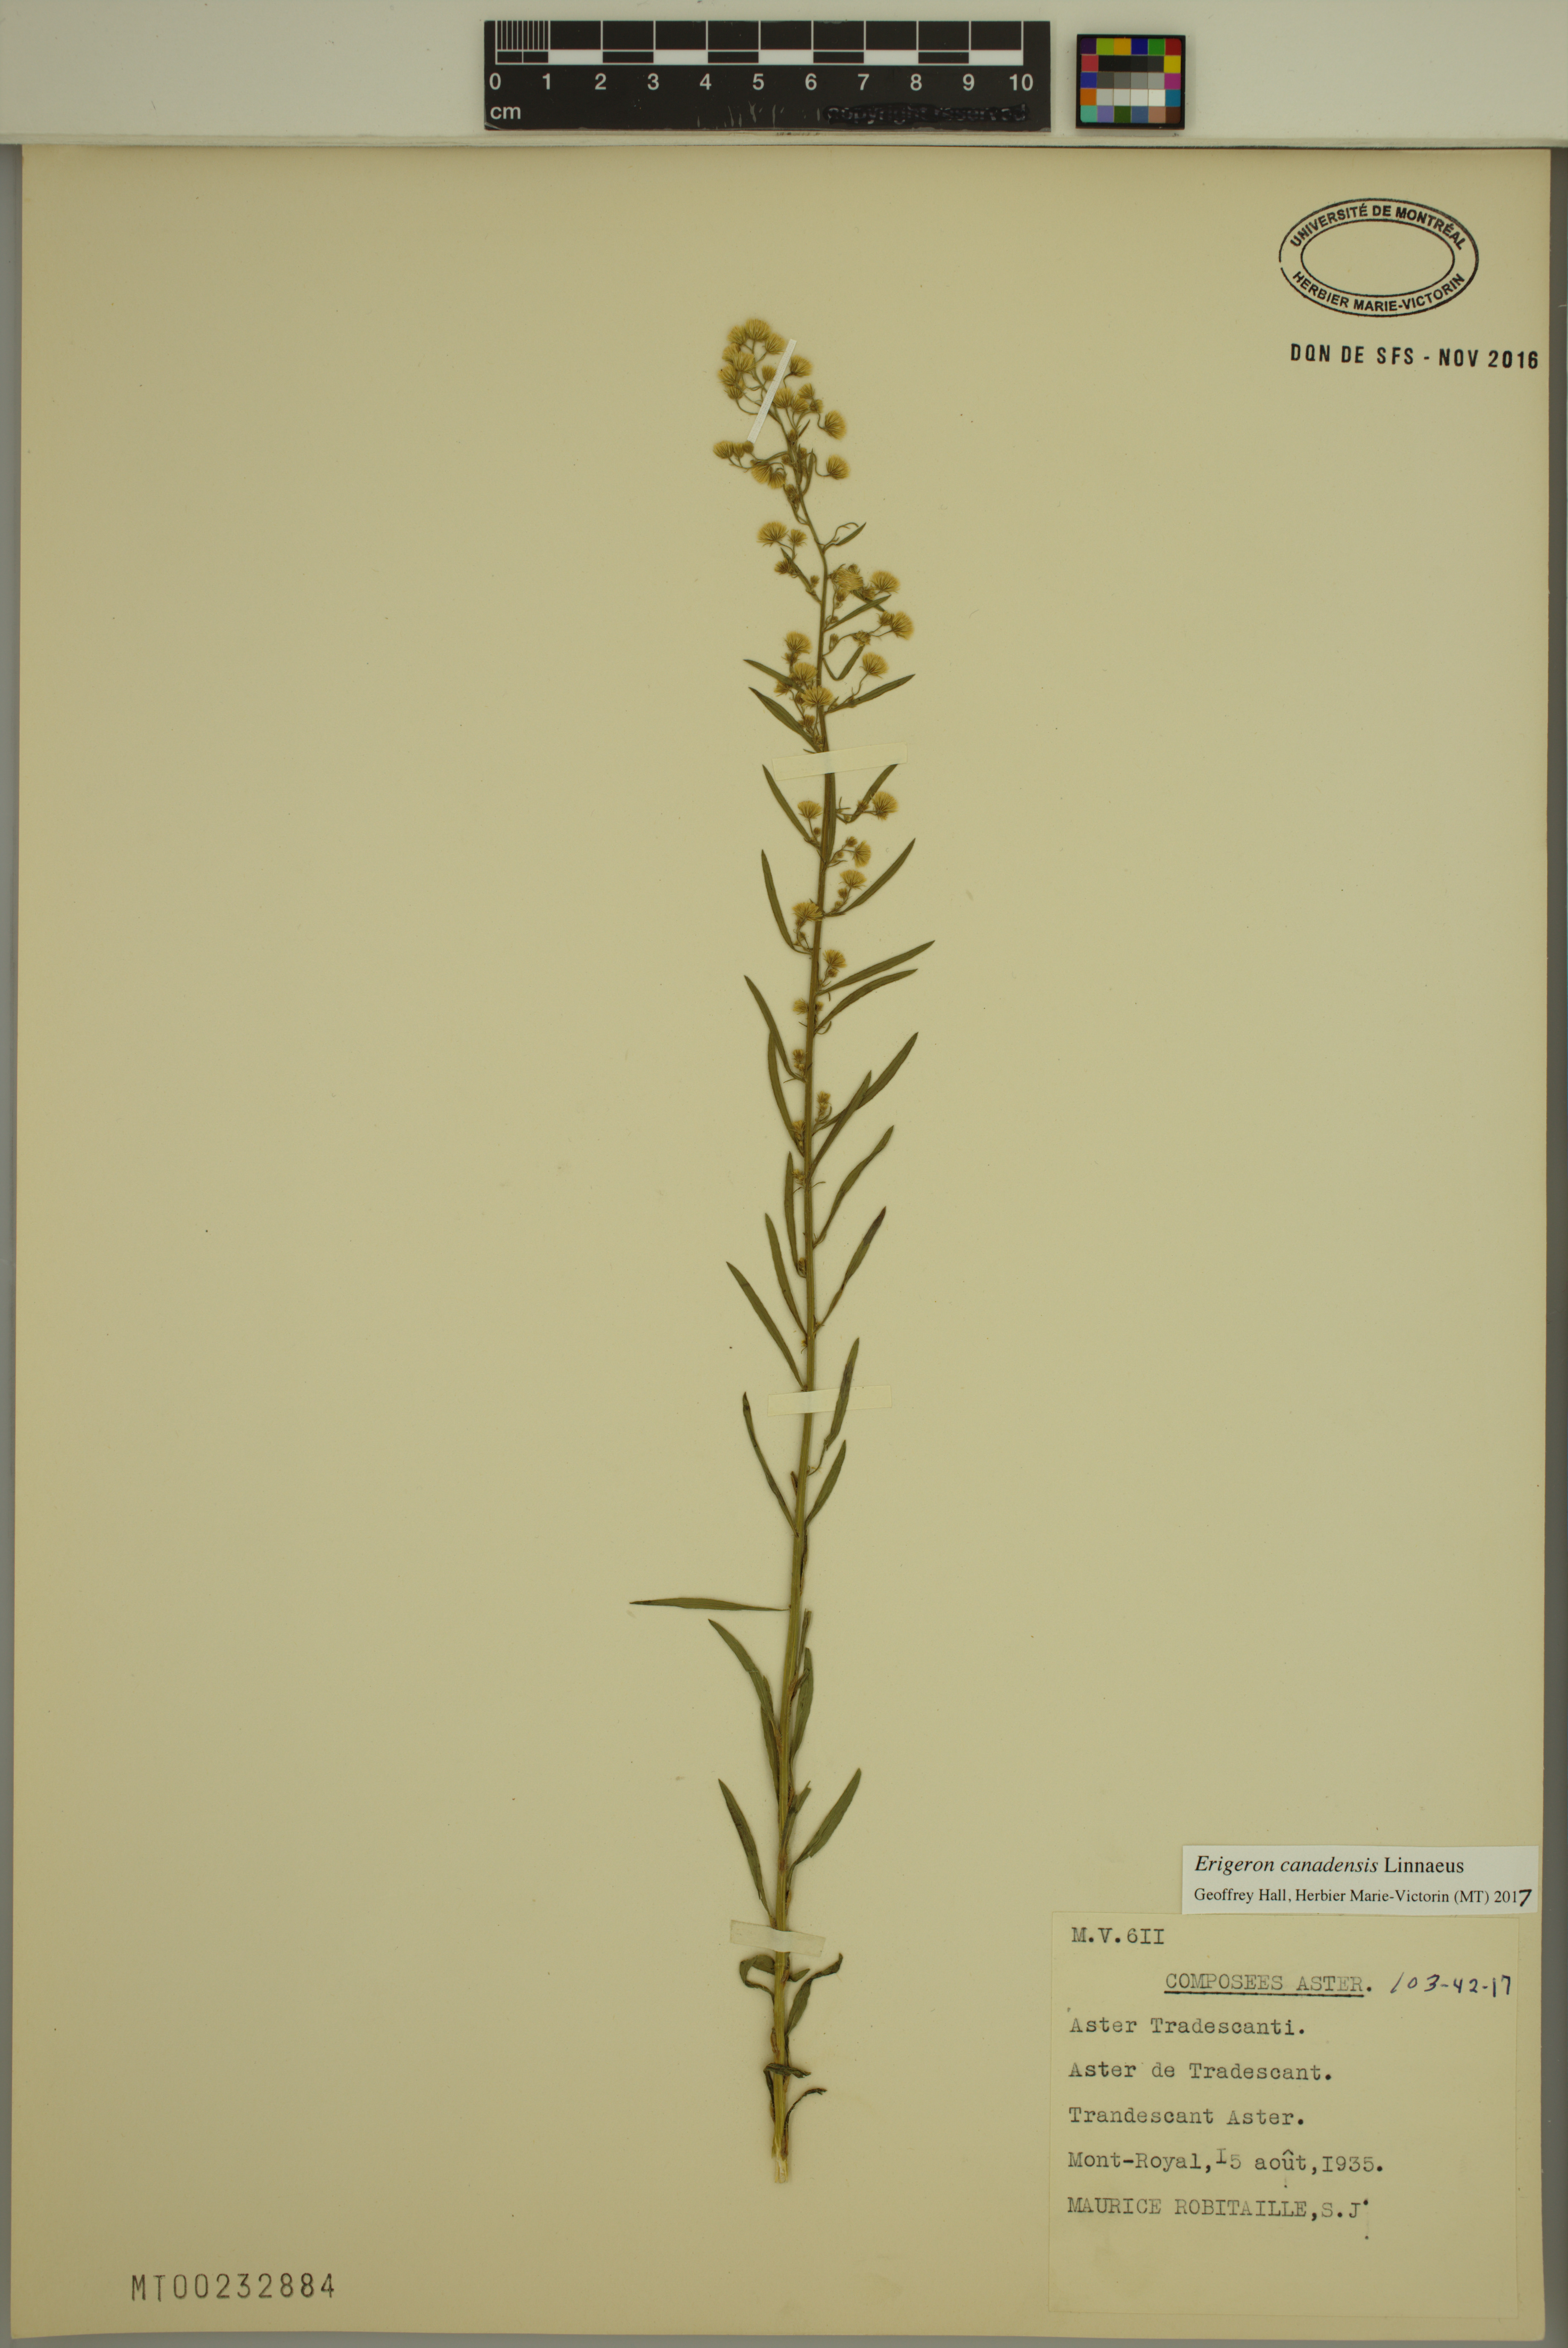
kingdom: Plantae
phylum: Tracheophyta
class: Magnoliopsida
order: Asterales
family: Asteraceae
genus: Erigeron
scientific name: Erigeron canadensis
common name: Canadian fleabane
